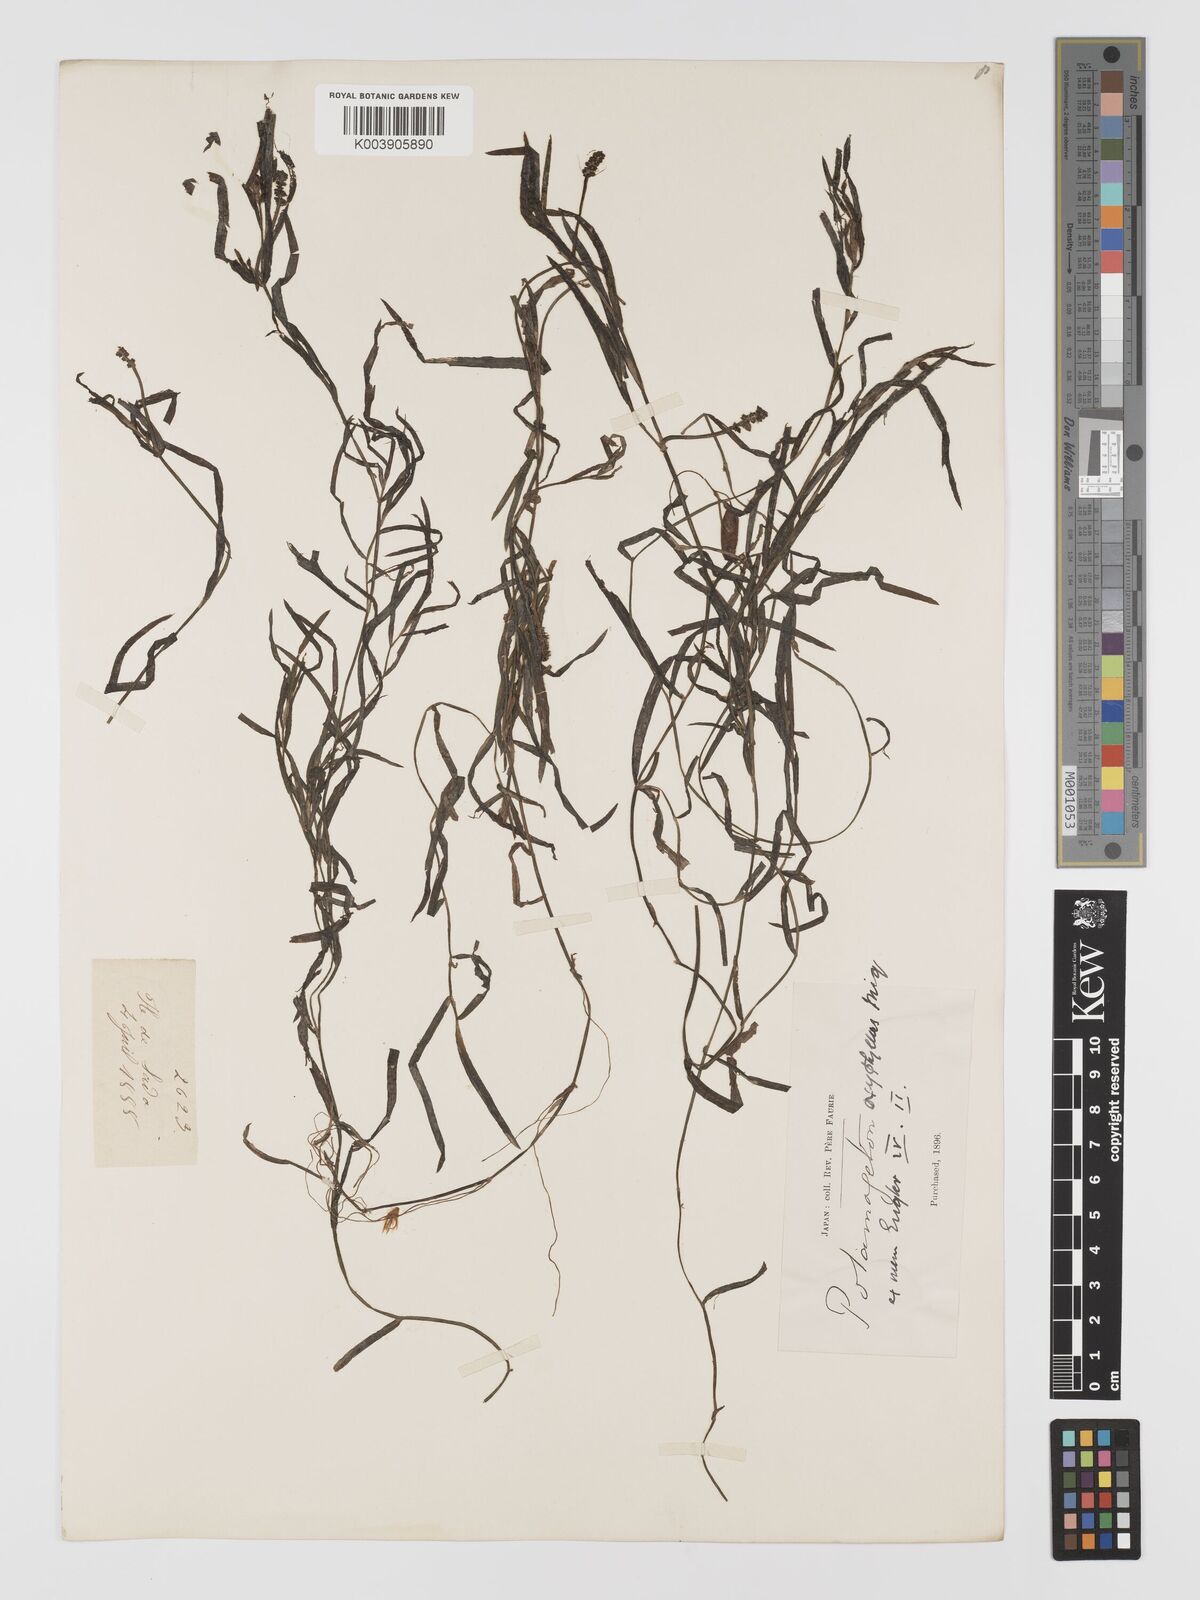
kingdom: Plantae
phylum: Tracheophyta
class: Liliopsida
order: Alismatales
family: Potamogetonaceae
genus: Potamogeton
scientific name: Potamogeton oxyphyllus
